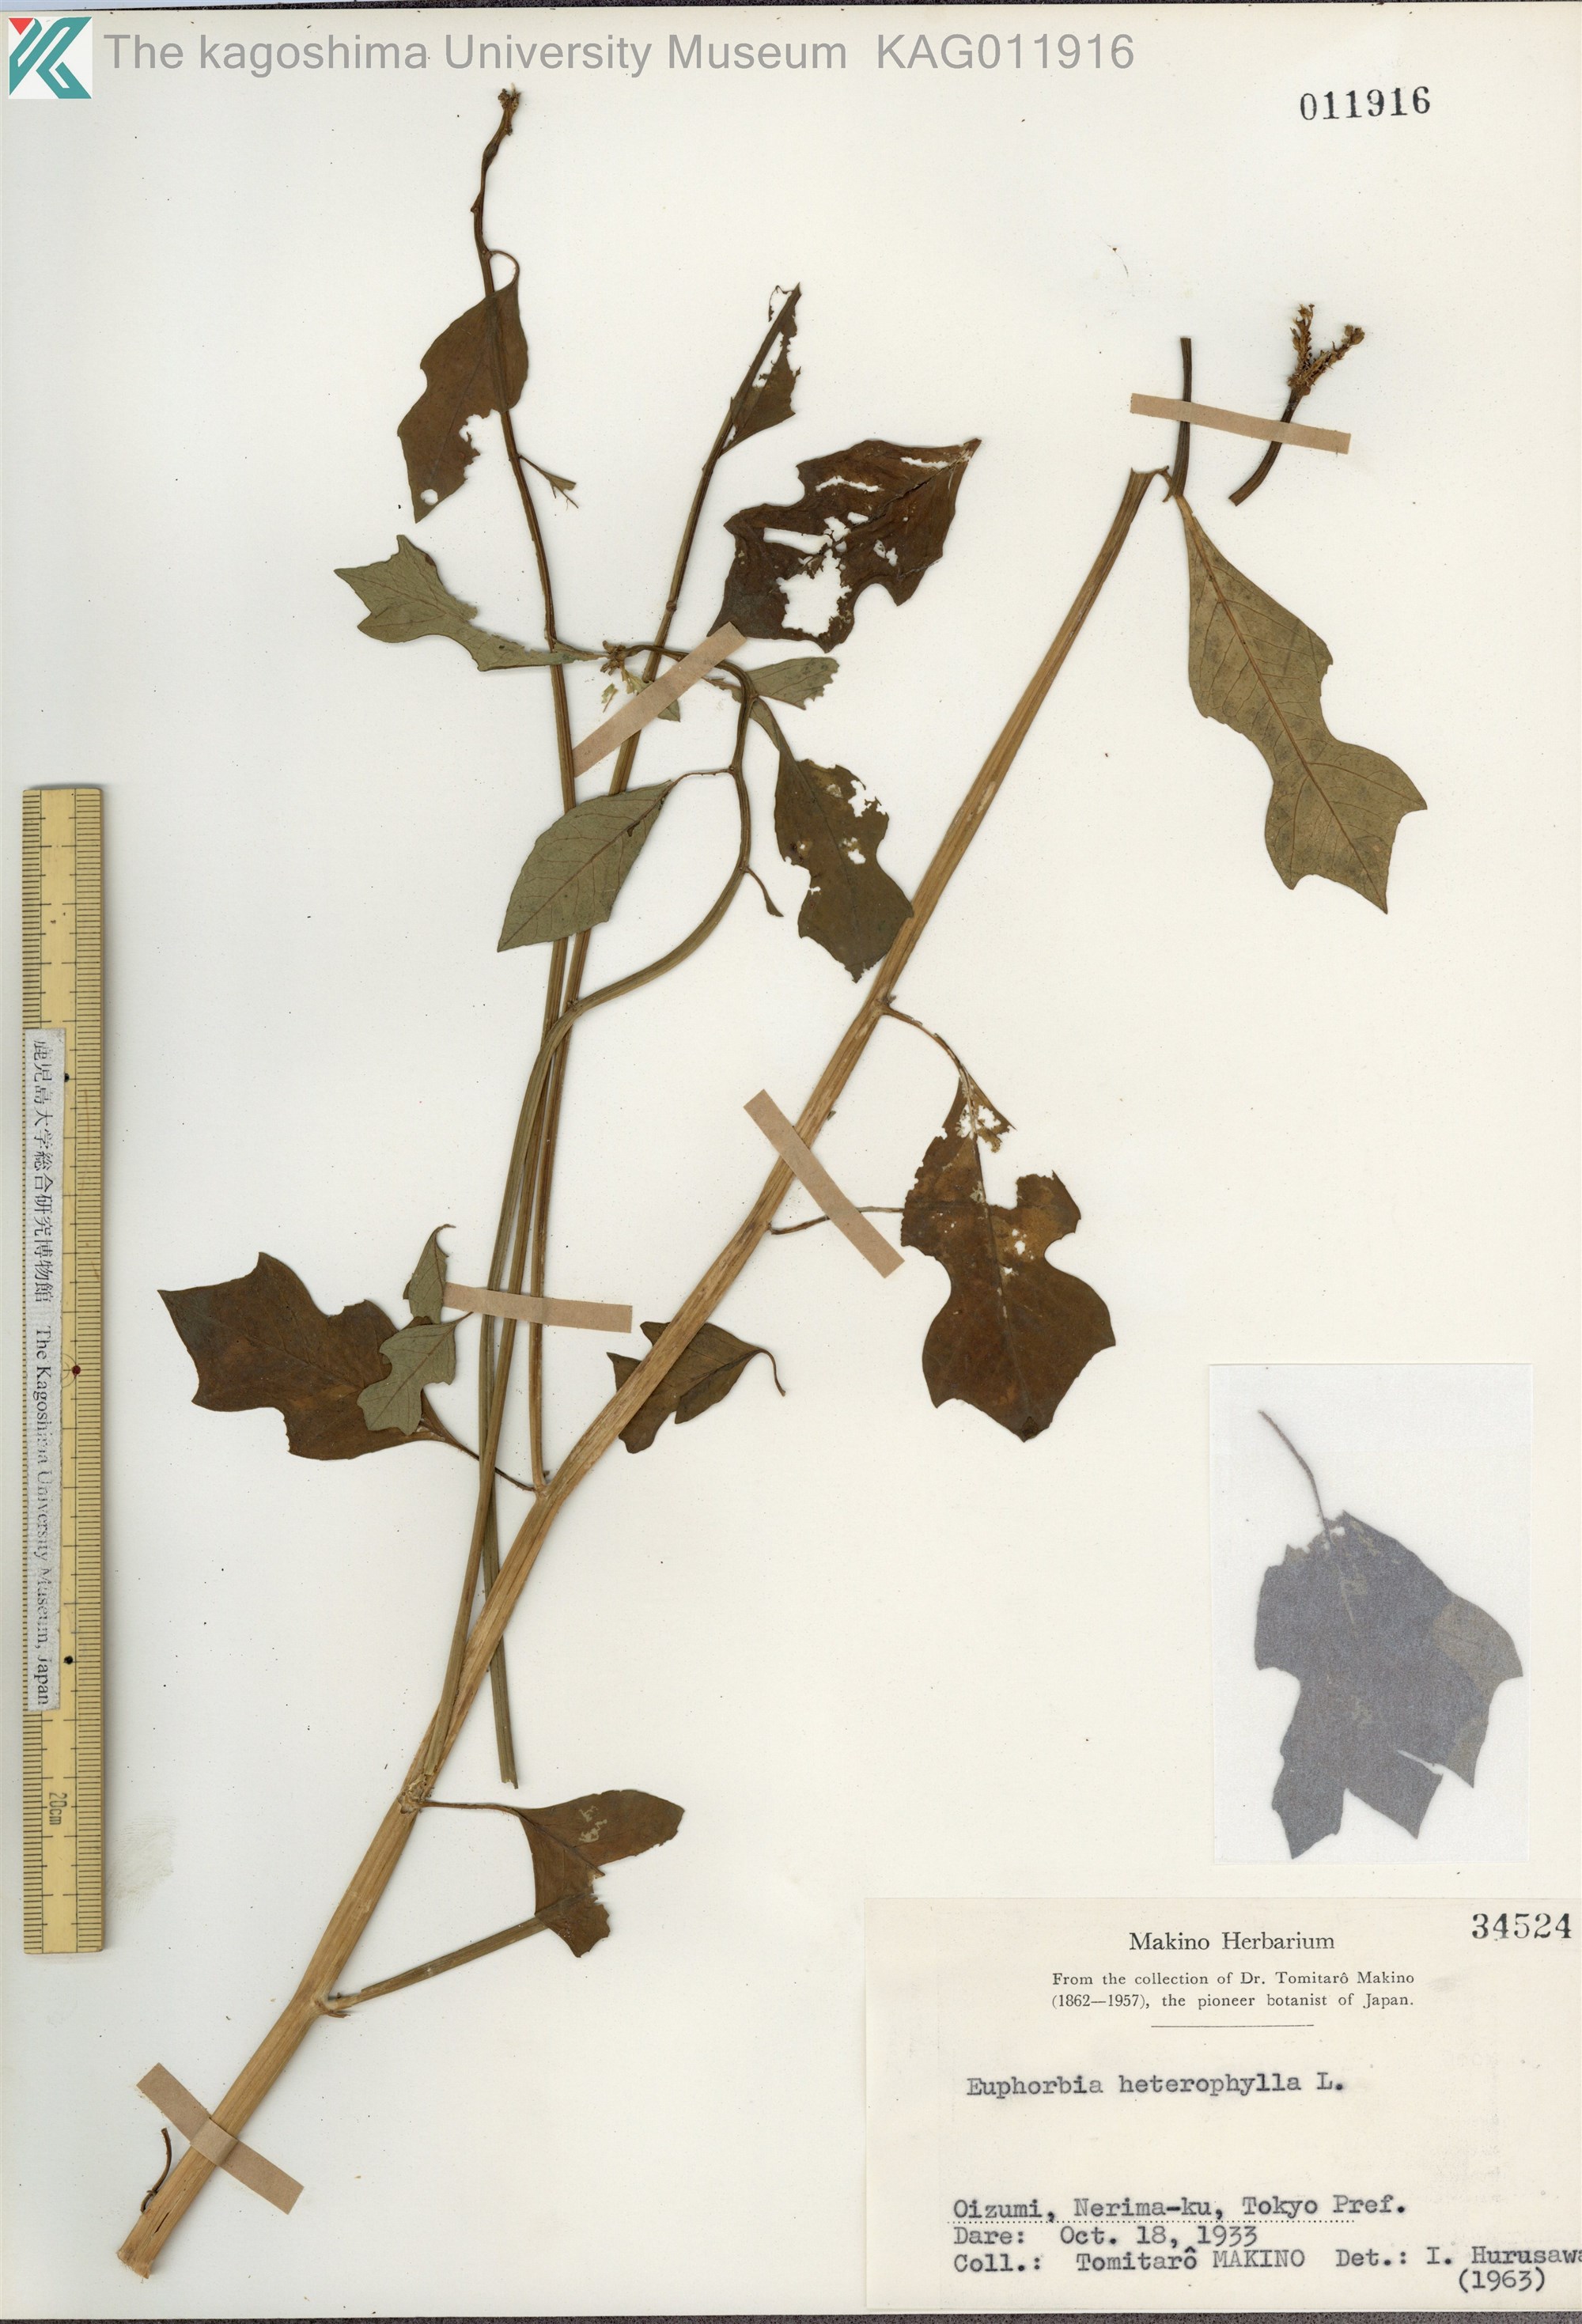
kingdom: Plantae
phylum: Tracheophyta
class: Magnoliopsida
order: Malpighiales
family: Euphorbiaceae
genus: Euphorbia
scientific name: Euphorbia heterophylla
